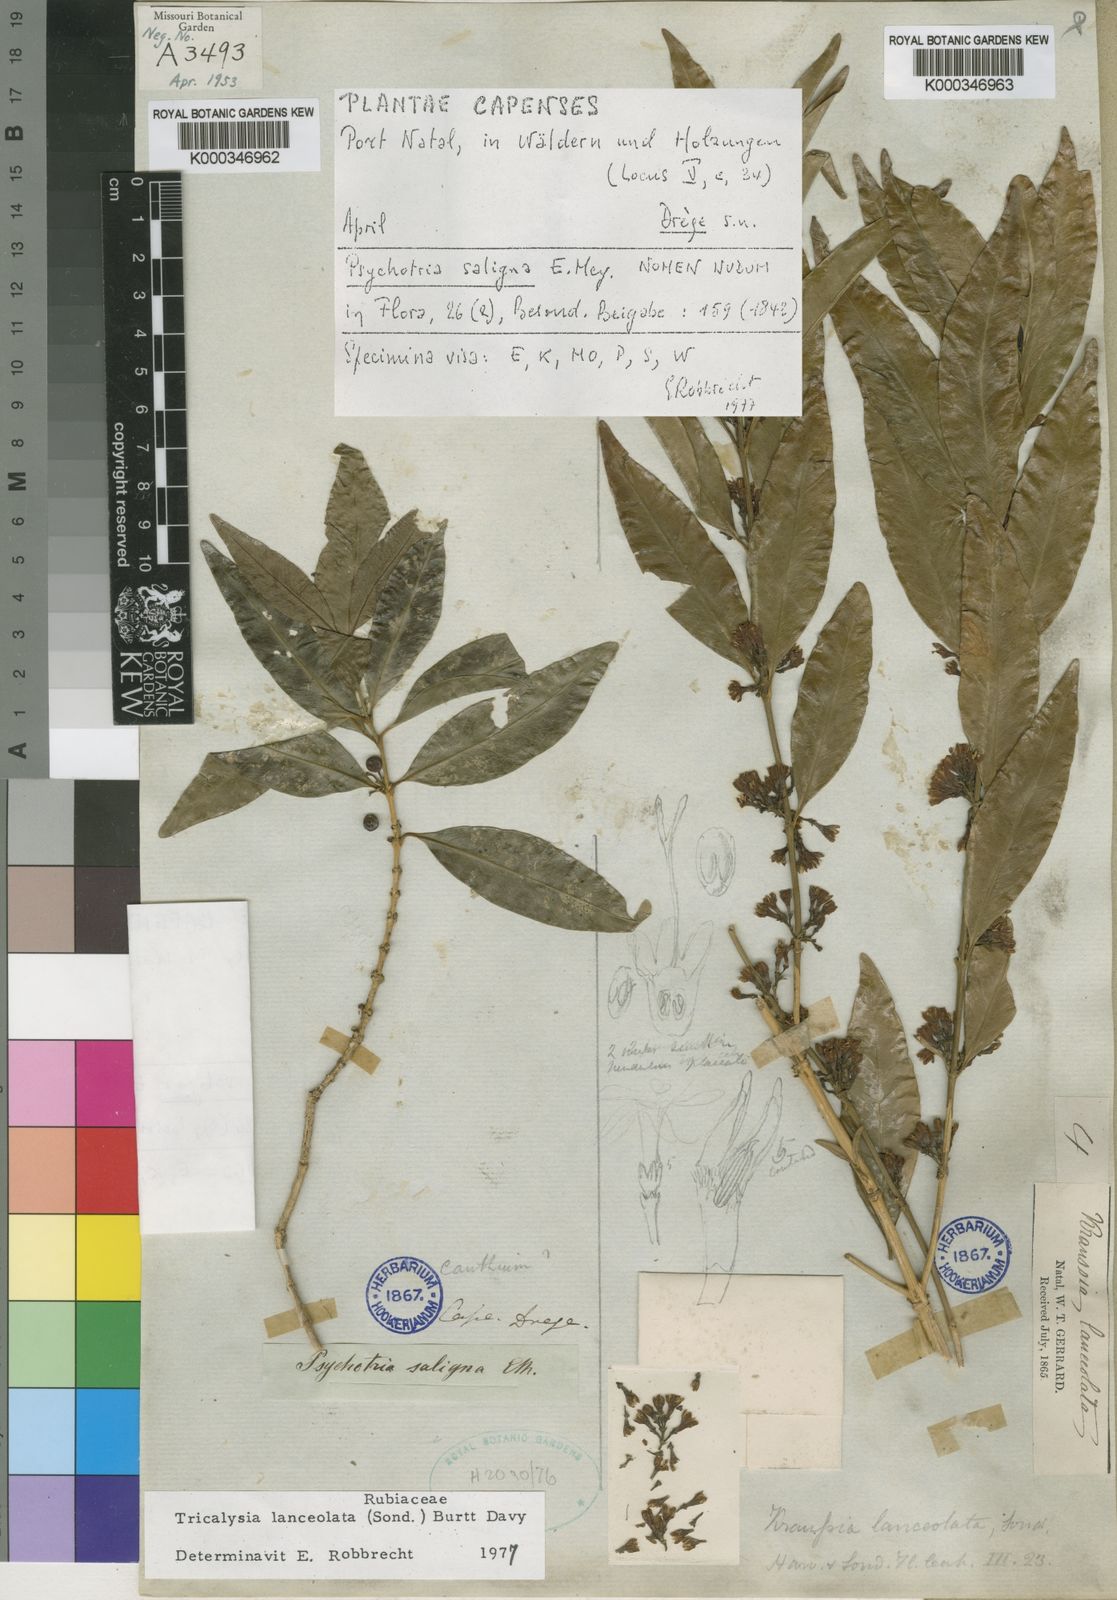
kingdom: Plantae
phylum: Tracheophyta
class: Magnoliopsida
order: Gentianales
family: Rubiaceae
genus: Empogona
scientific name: Empogona lanceolata
